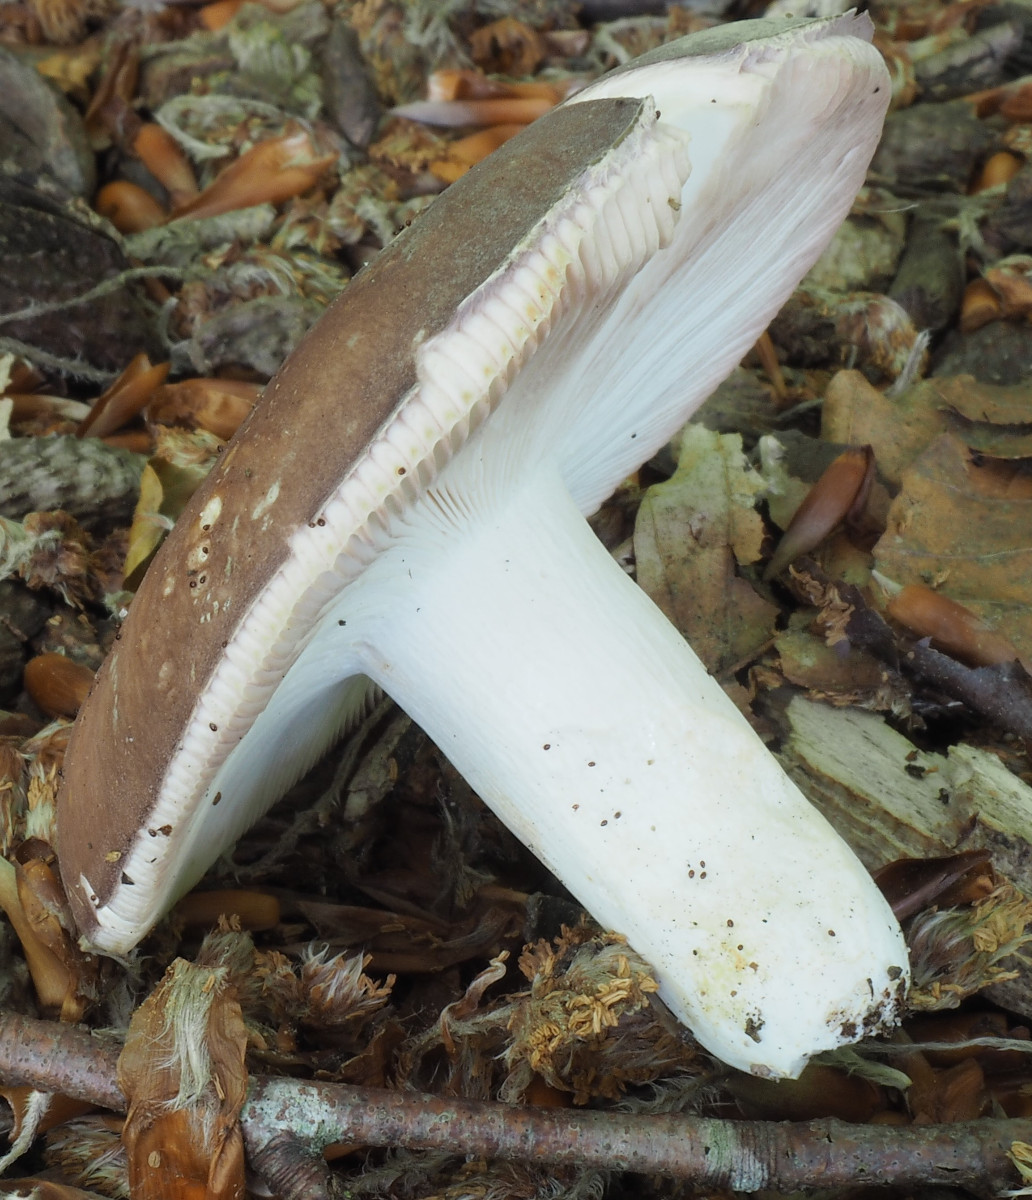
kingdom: Fungi
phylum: Basidiomycota
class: Agaricomycetes
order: Russulales
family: Russulaceae
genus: Russula
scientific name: Russula vesca
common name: spiselig skørhat
